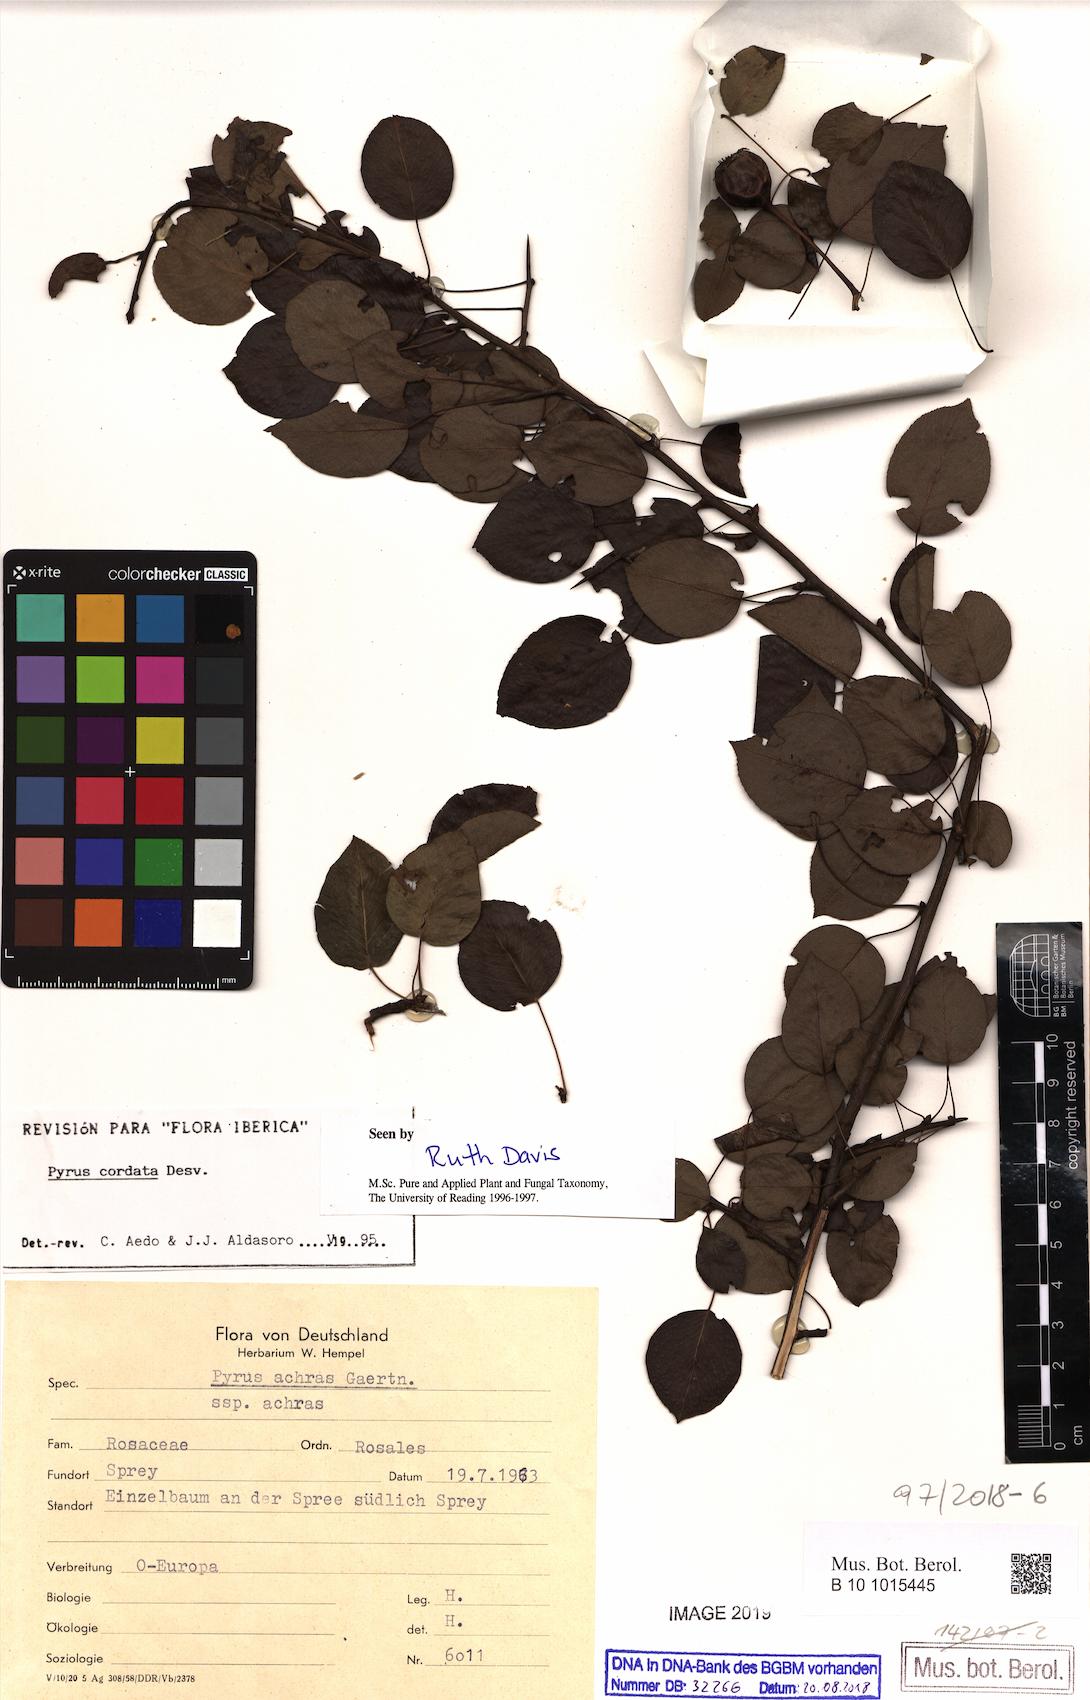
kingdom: Plantae
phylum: Tracheophyta
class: Magnoliopsida
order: Rosales
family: Rosaceae
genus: Pyrus
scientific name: Pyrus cordata
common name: Plymouth pear
